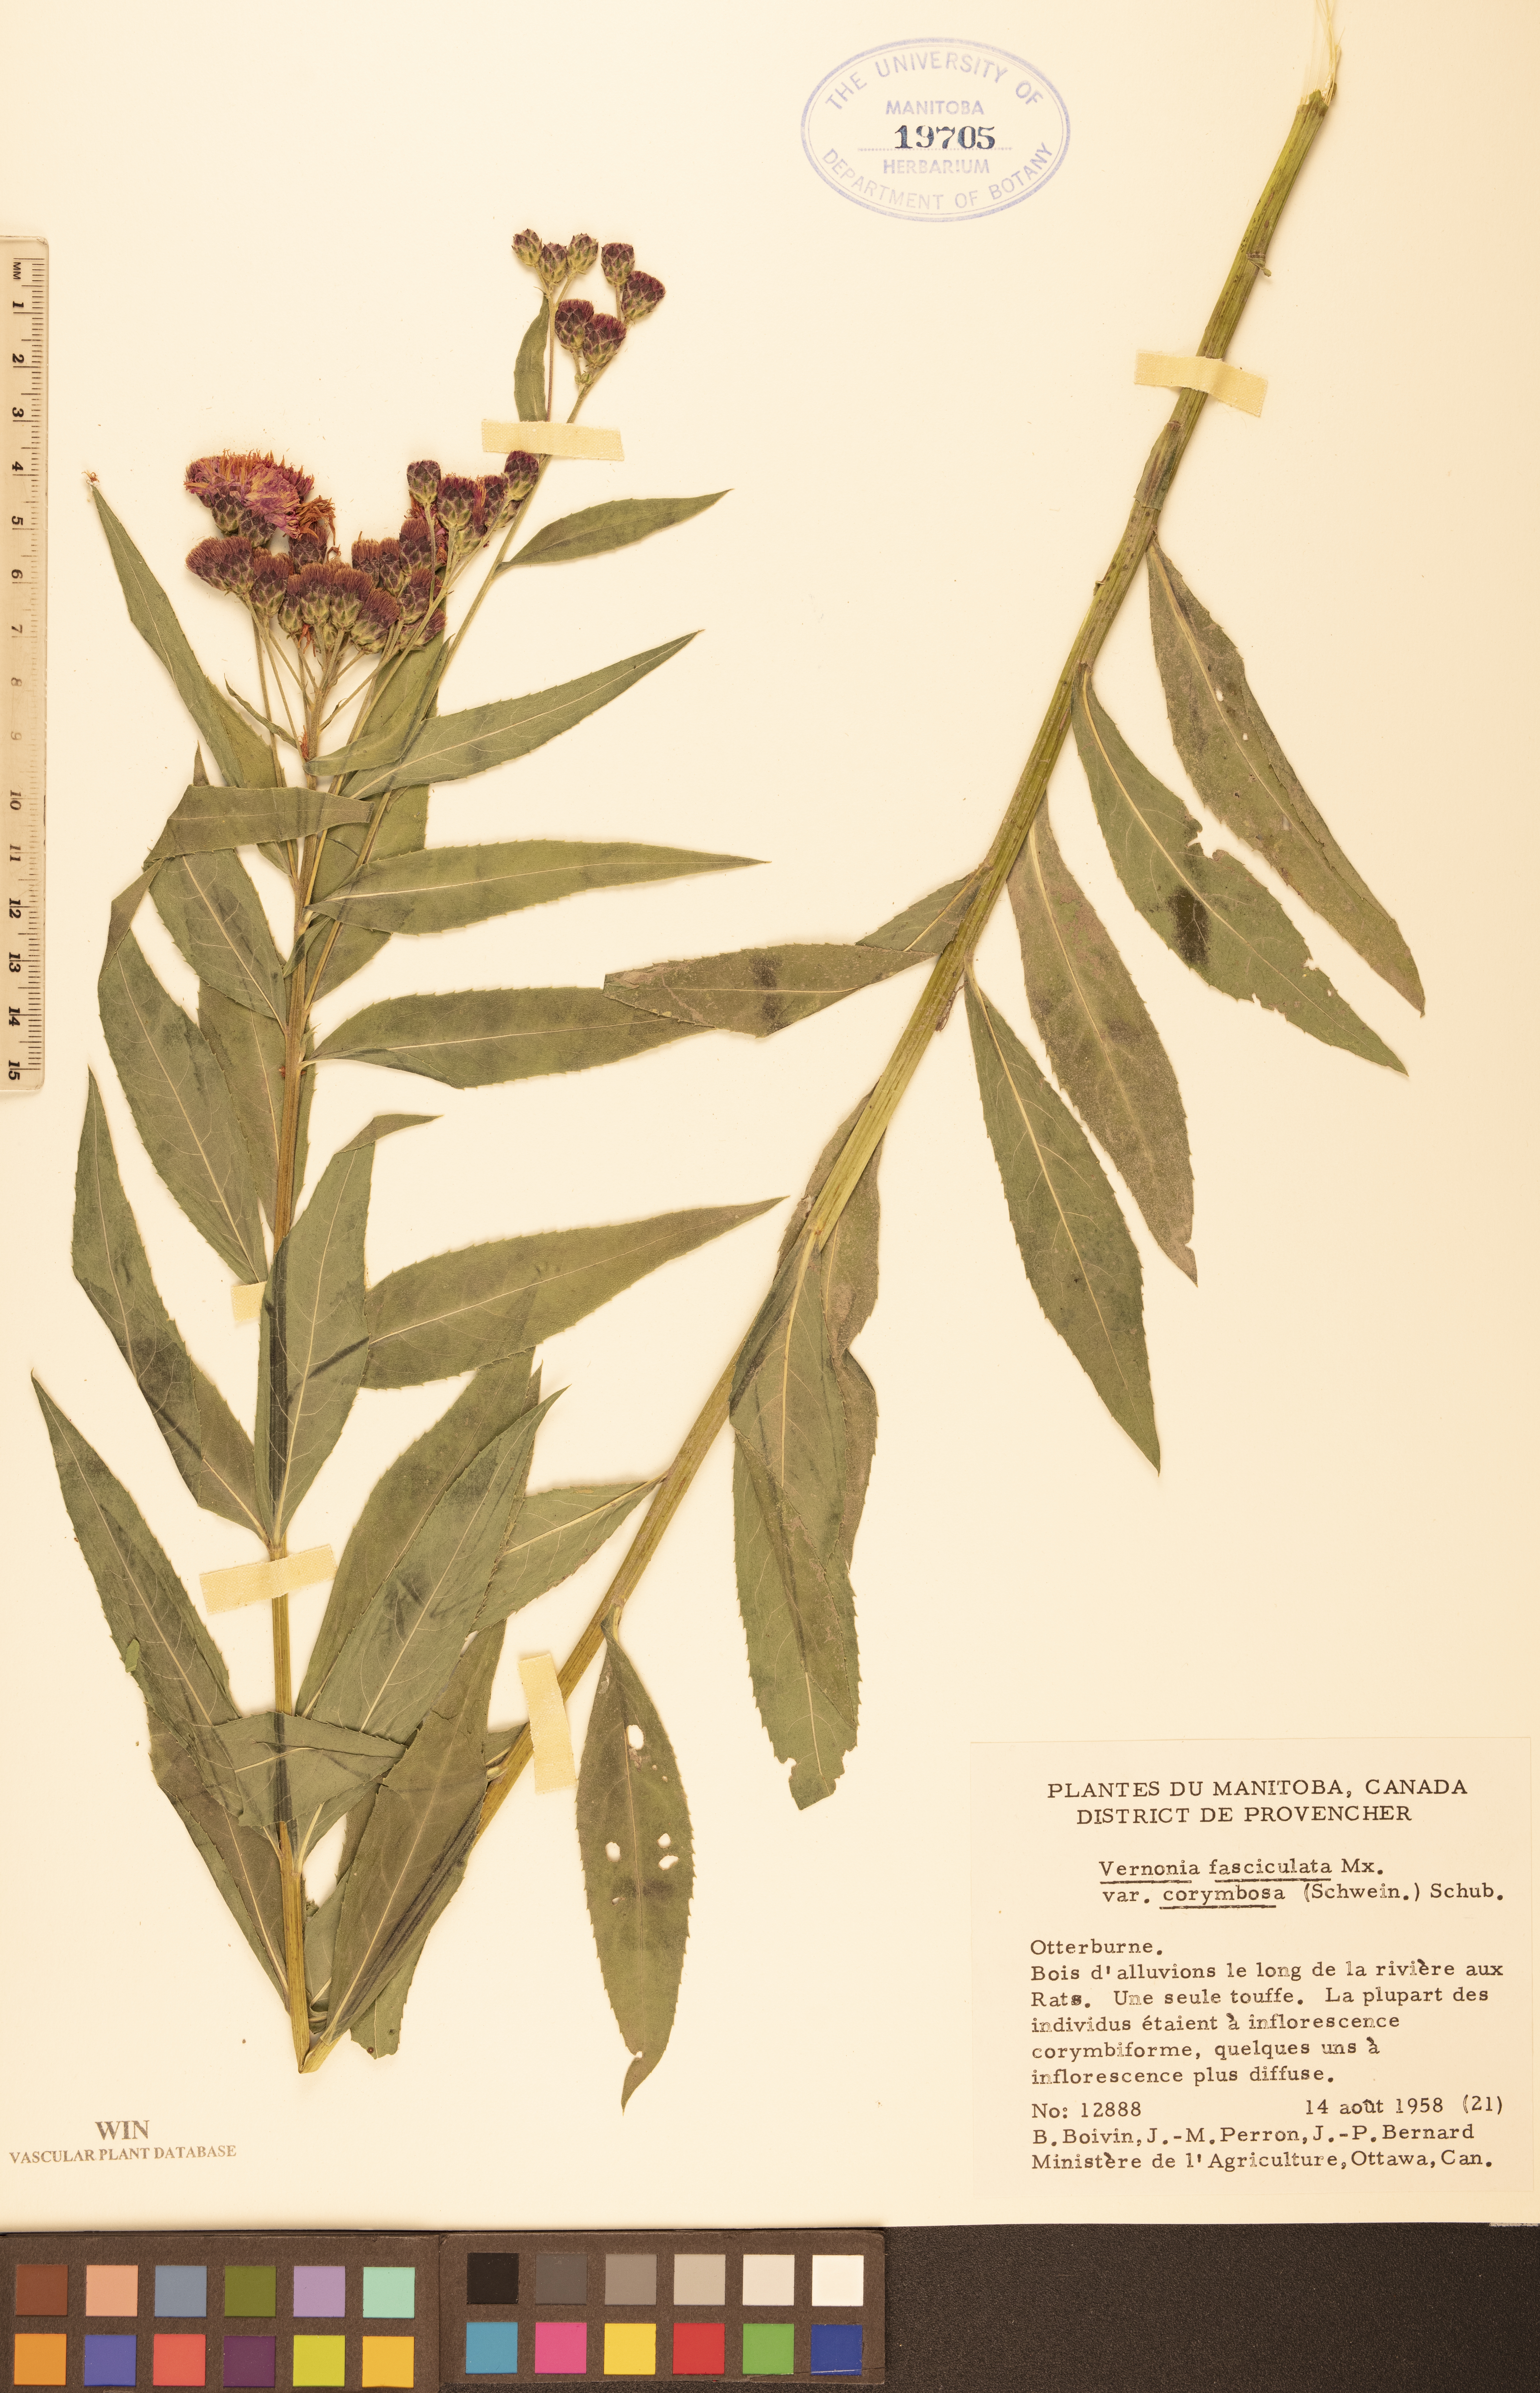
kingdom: Plantae
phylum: Tracheophyta
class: Magnoliopsida
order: Asterales
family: Asteraceae
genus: Vernonia
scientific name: Vernonia fasciculata
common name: Fascicled ironweed
